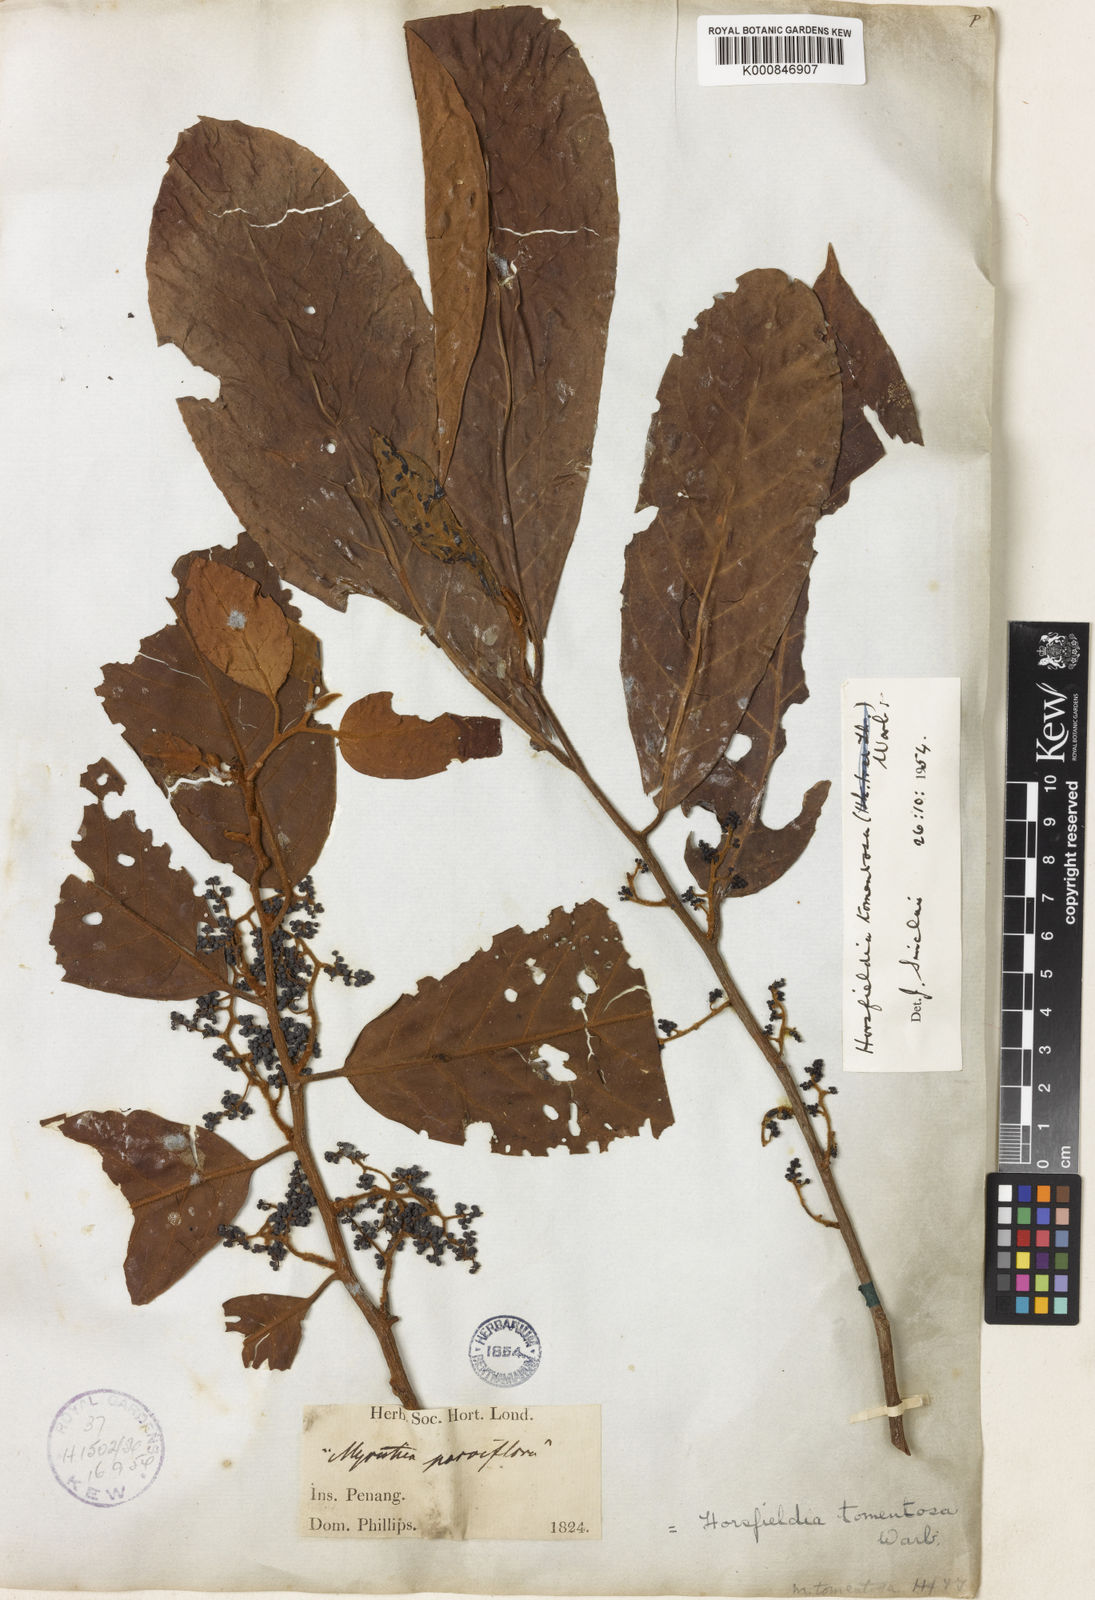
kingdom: Plantae
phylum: Tracheophyta
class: Magnoliopsida
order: Magnoliales
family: Myristicaceae
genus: Horsfieldia
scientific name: Horsfieldia tomentosa
